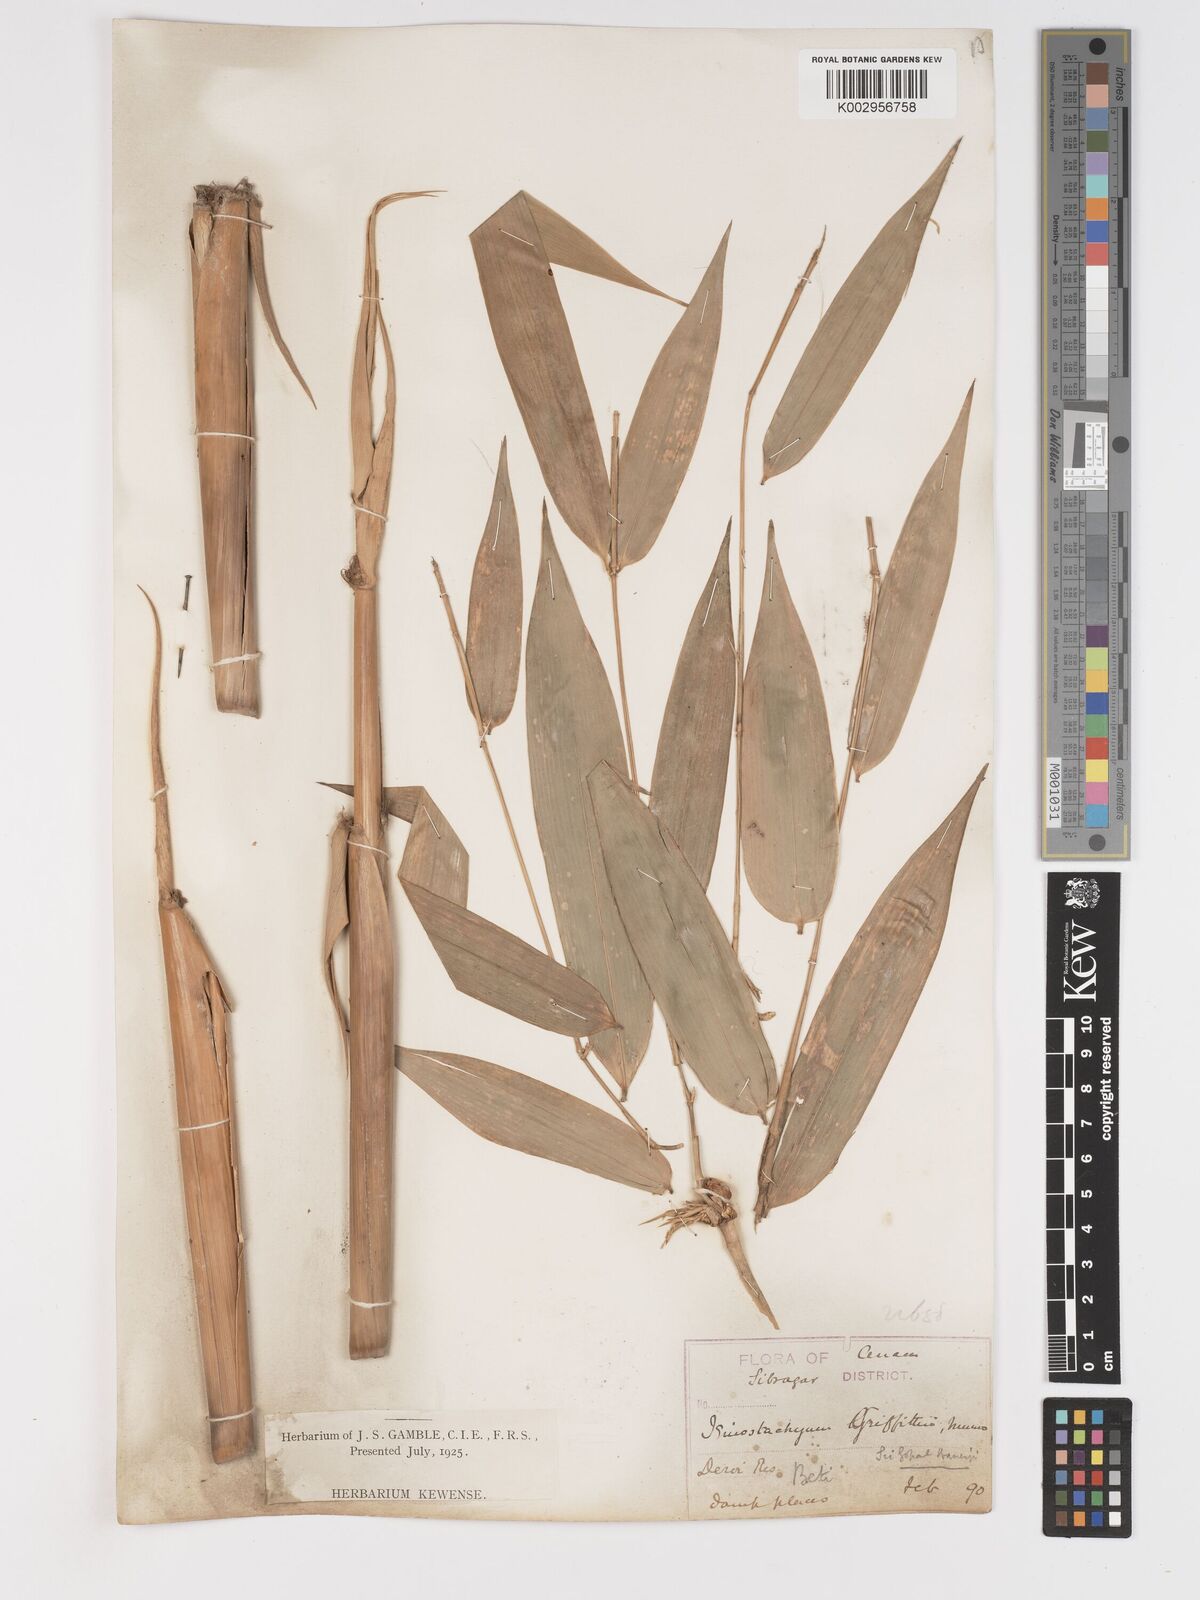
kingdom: Plantae
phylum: Tracheophyta
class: Liliopsida
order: Poales
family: Poaceae
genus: Schizostachyum
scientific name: Schizostachyum griffithii
